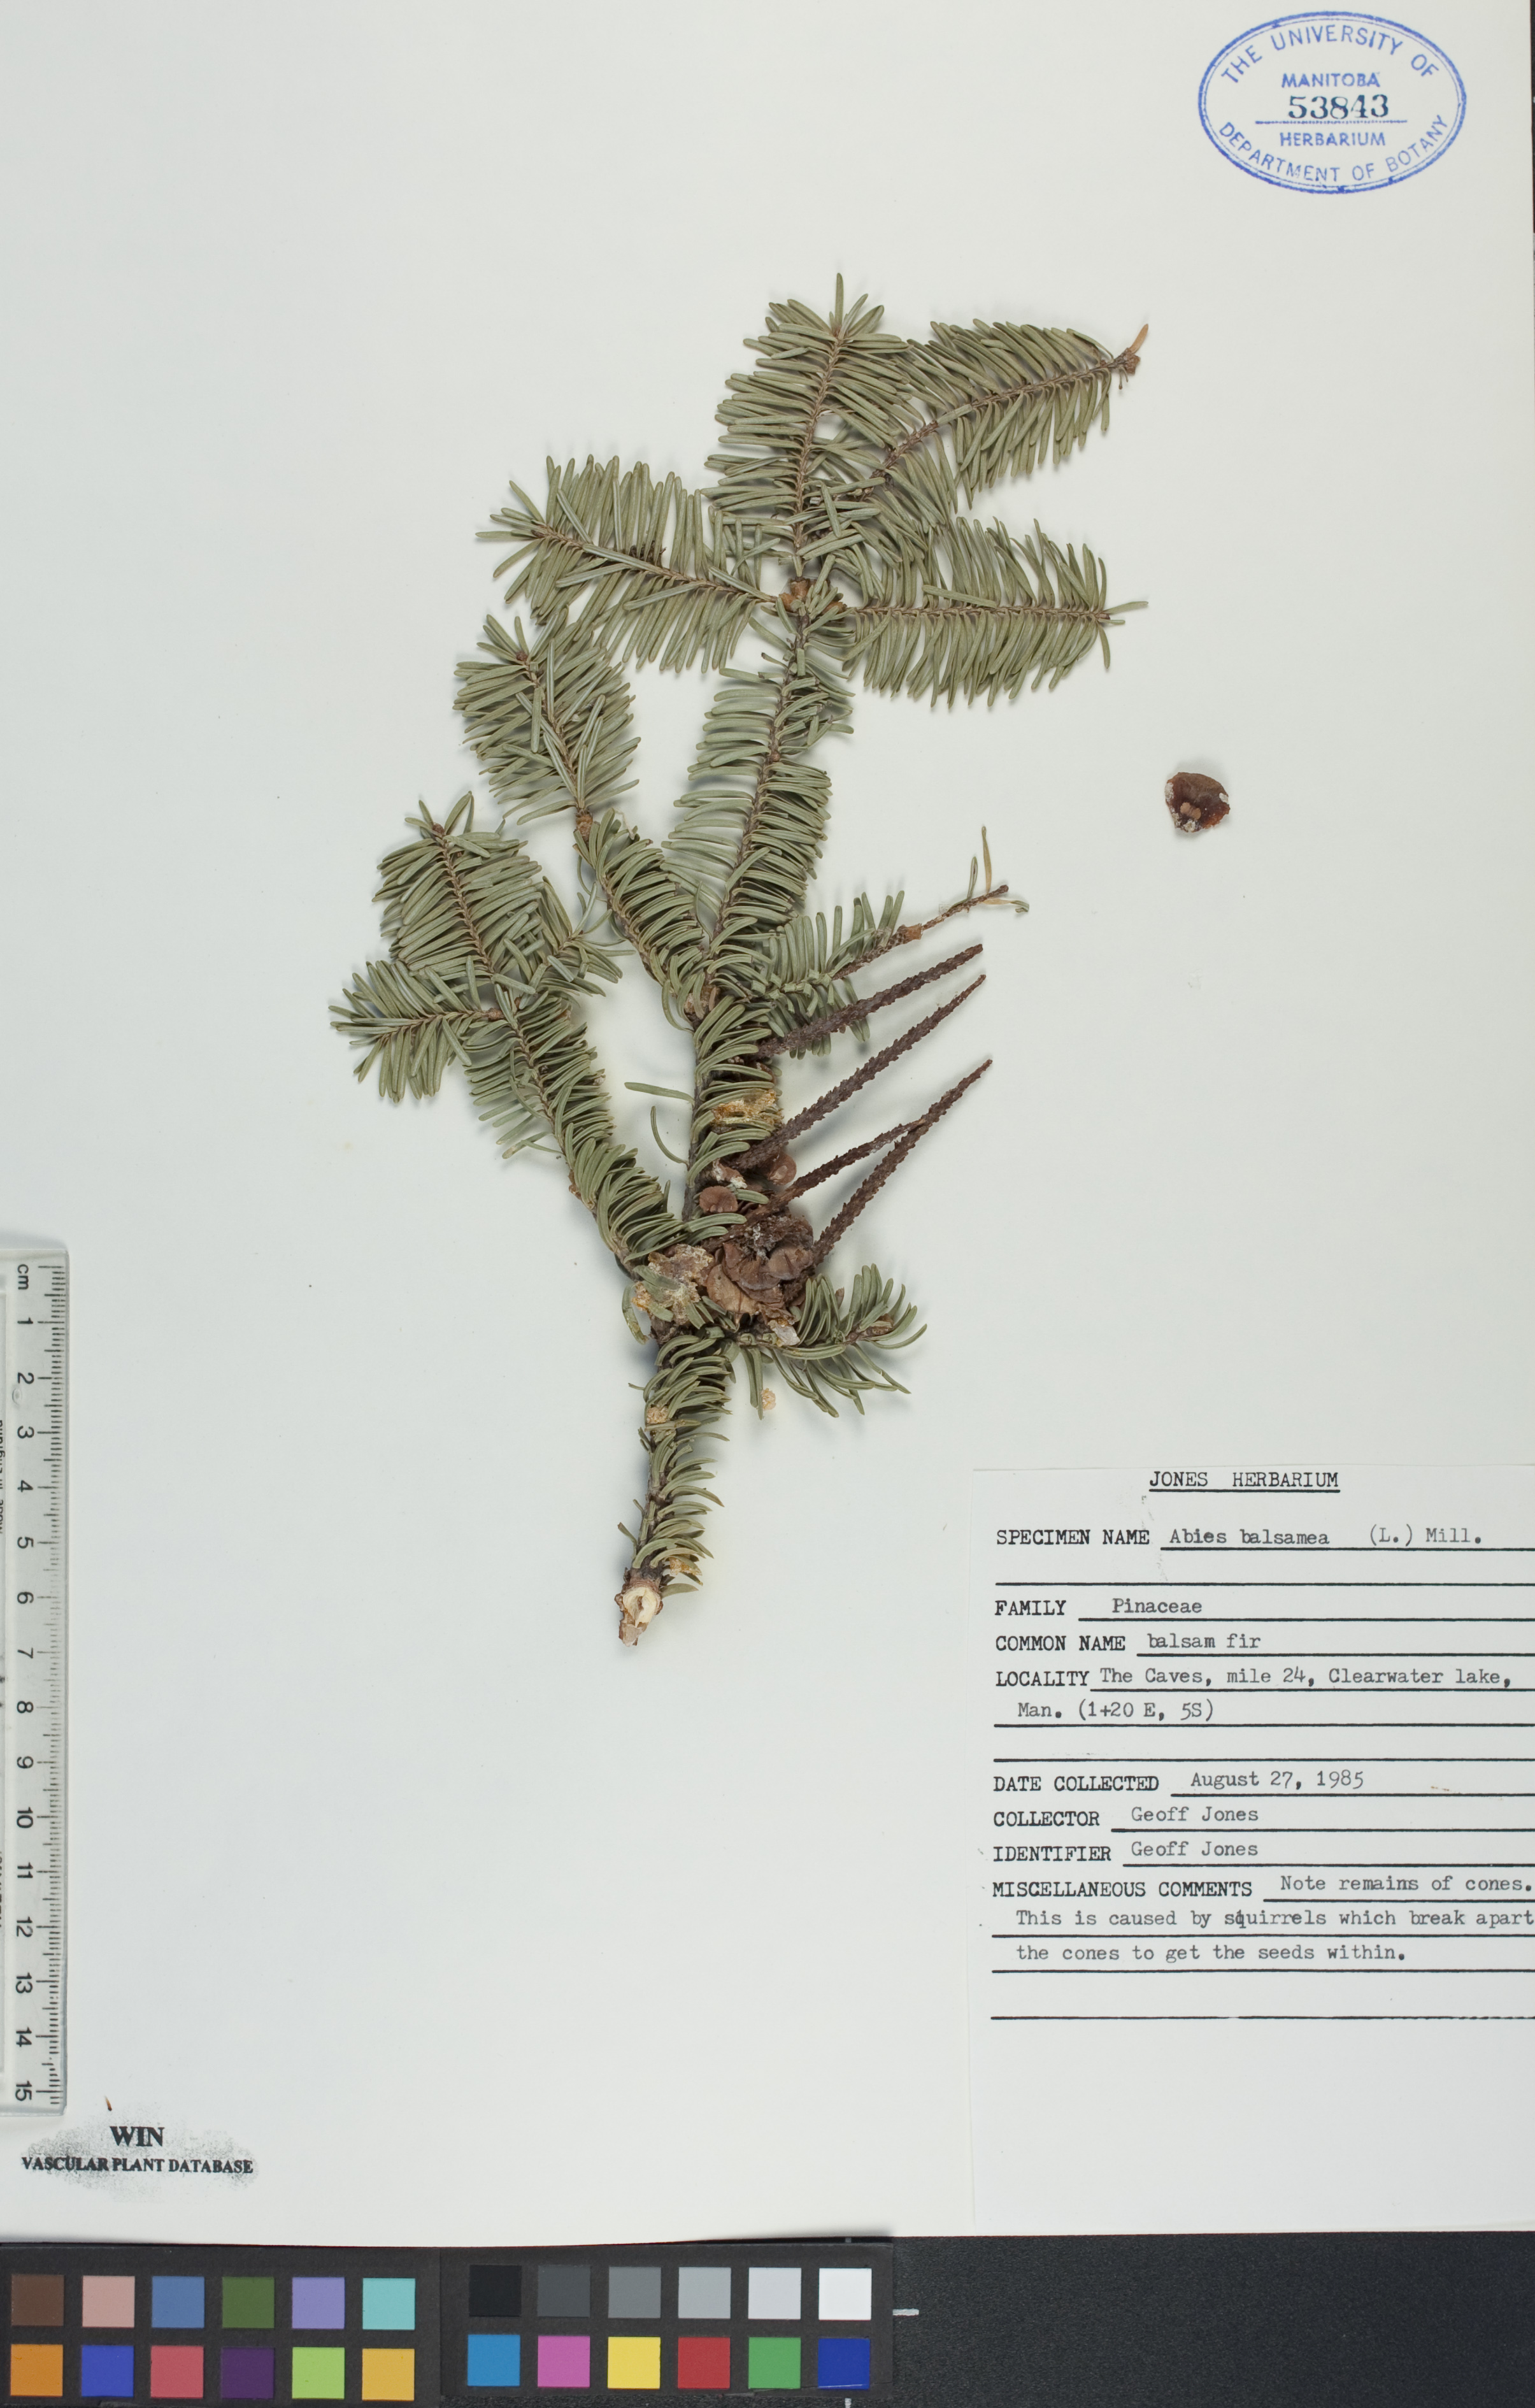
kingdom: Plantae
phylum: Tracheophyta
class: Pinopsida
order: Pinales
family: Pinaceae
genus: Abies
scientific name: Abies balsamea
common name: Balsam fir
